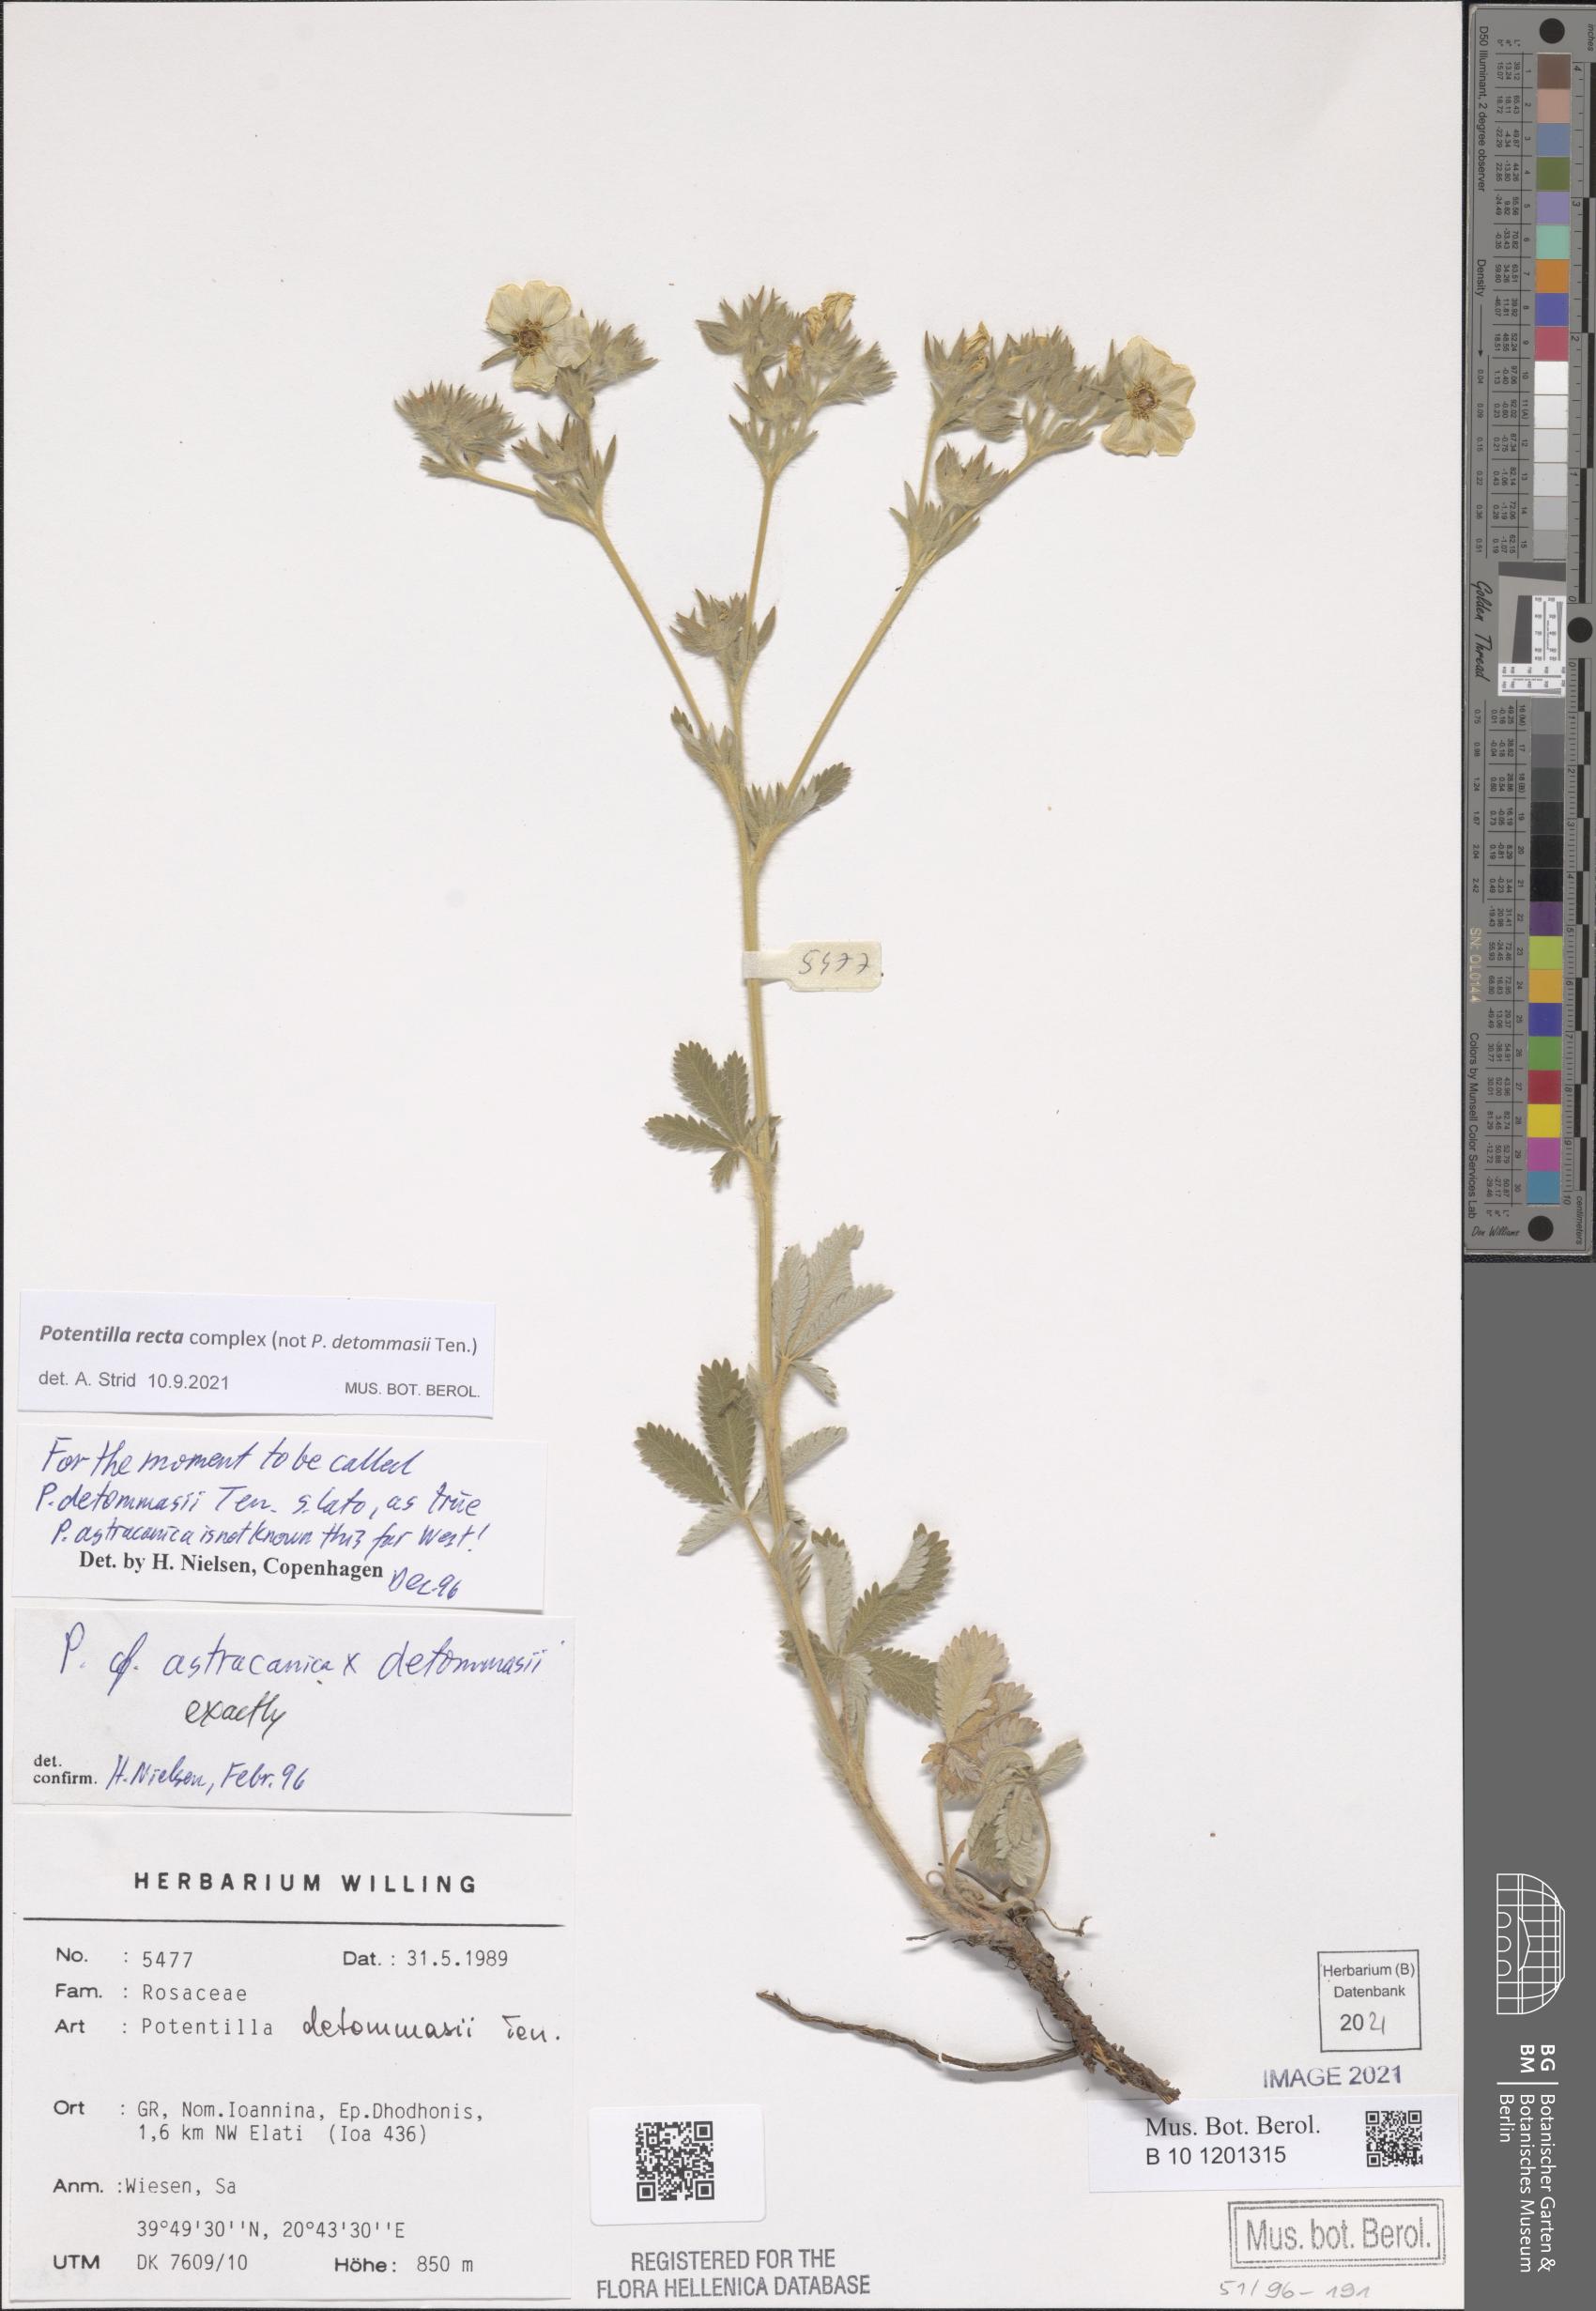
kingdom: Plantae
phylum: Tracheophyta
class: Magnoliopsida
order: Rosales
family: Rosaceae
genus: Potentilla
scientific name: Potentilla recta
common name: Sulphur cinquefoil
